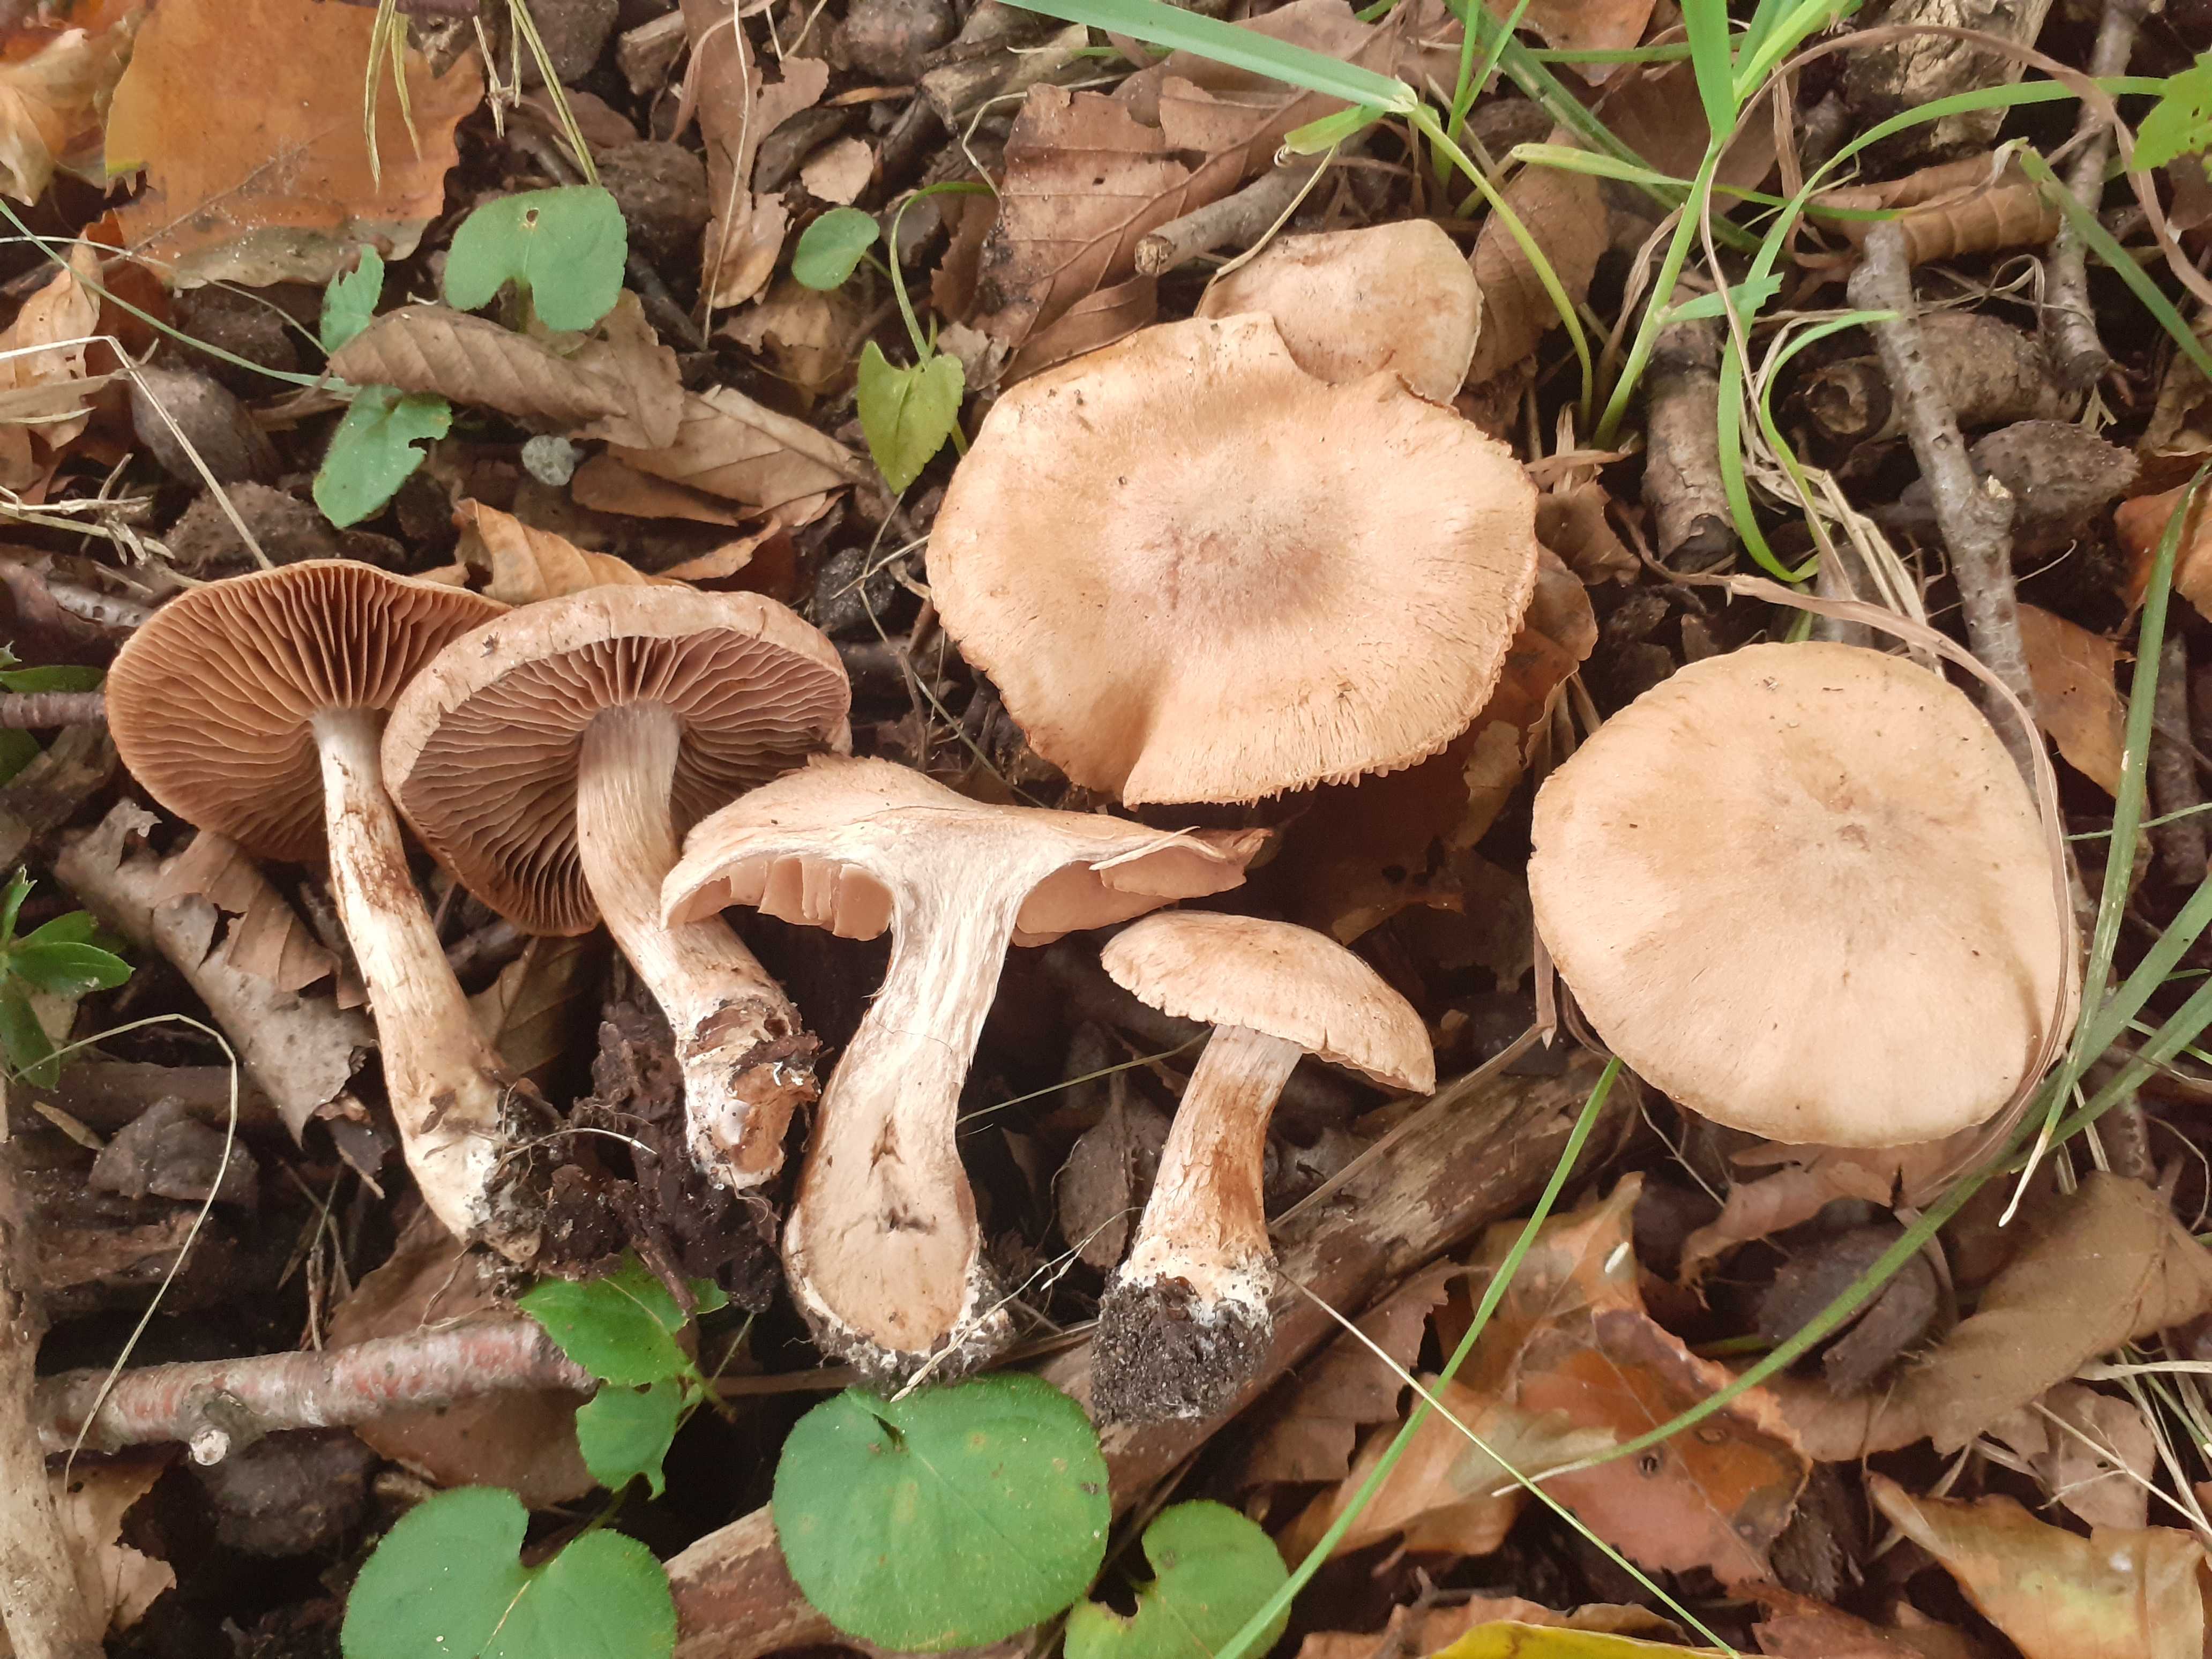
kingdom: Fungi
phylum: Basidiomycota
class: Agaricomycetes
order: Agaricales
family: Cortinariaceae
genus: Cortinarius
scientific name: Cortinarius aleuriodor
